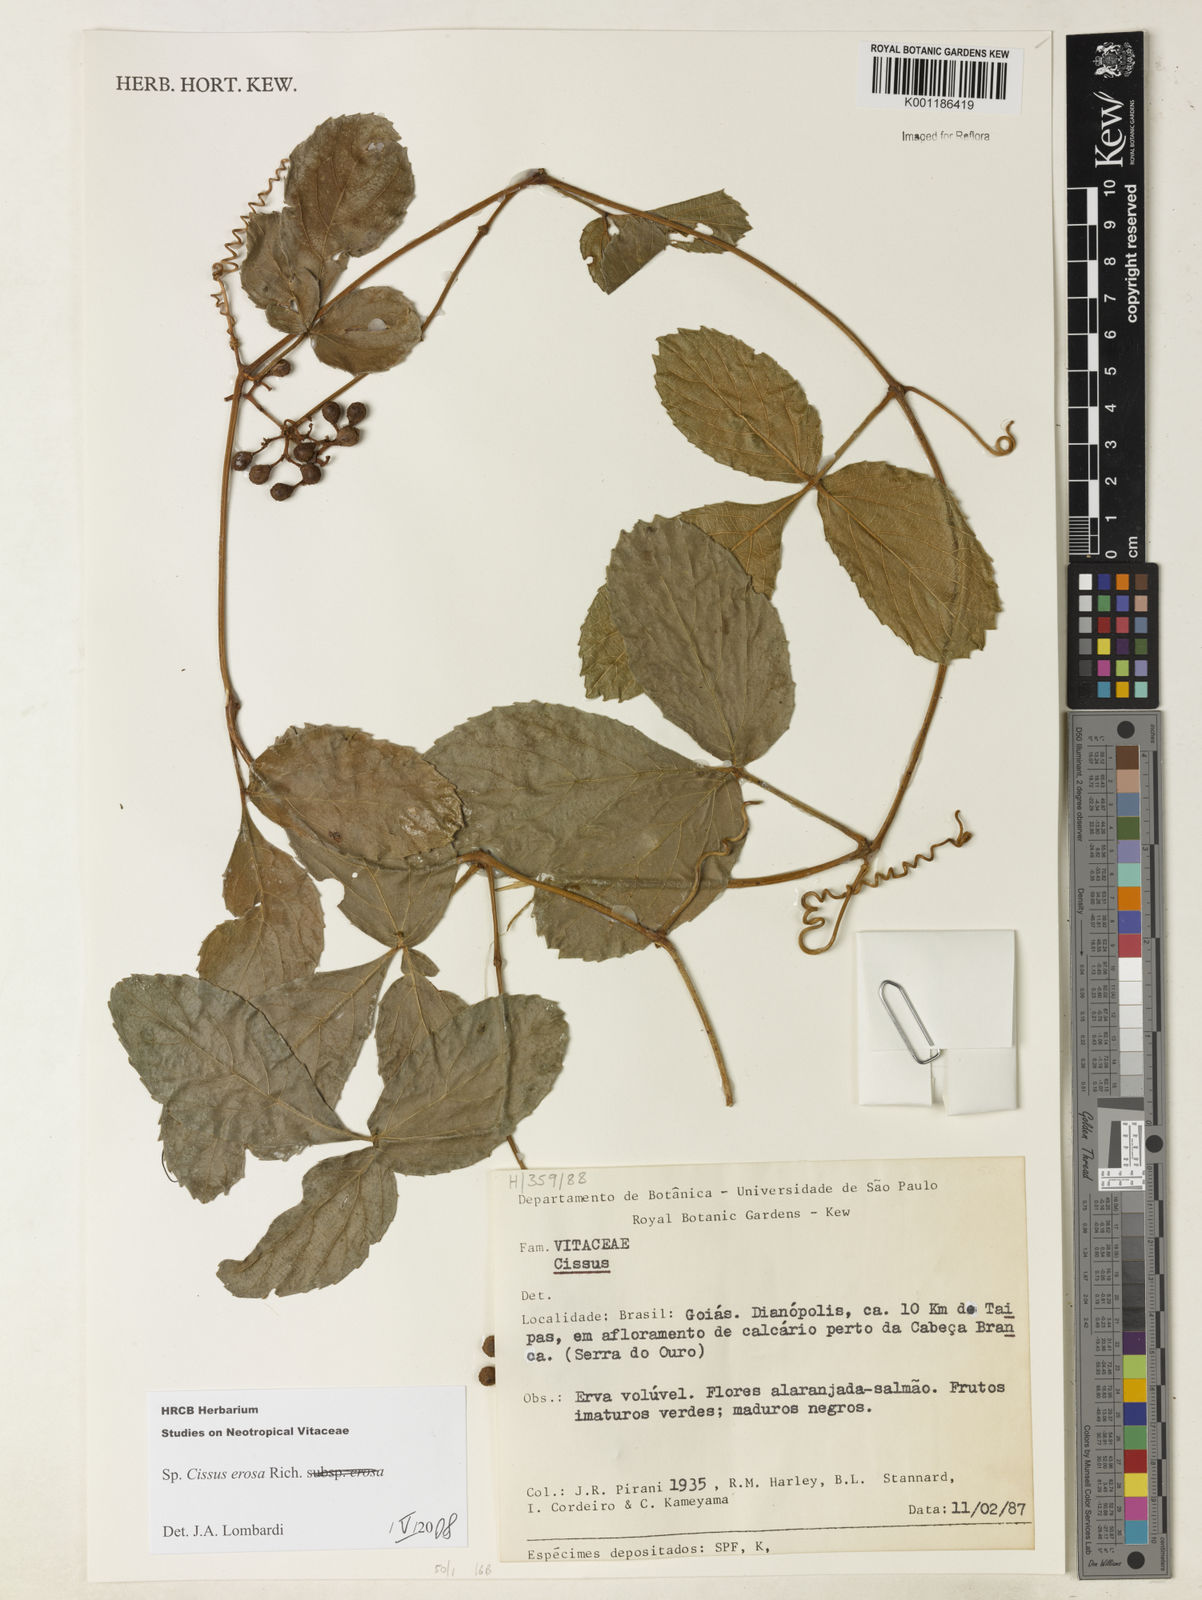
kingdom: Plantae
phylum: Tracheophyta
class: Magnoliopsida
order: Vitales
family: Vitaceae
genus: Cissus
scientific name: Cissus erosa
